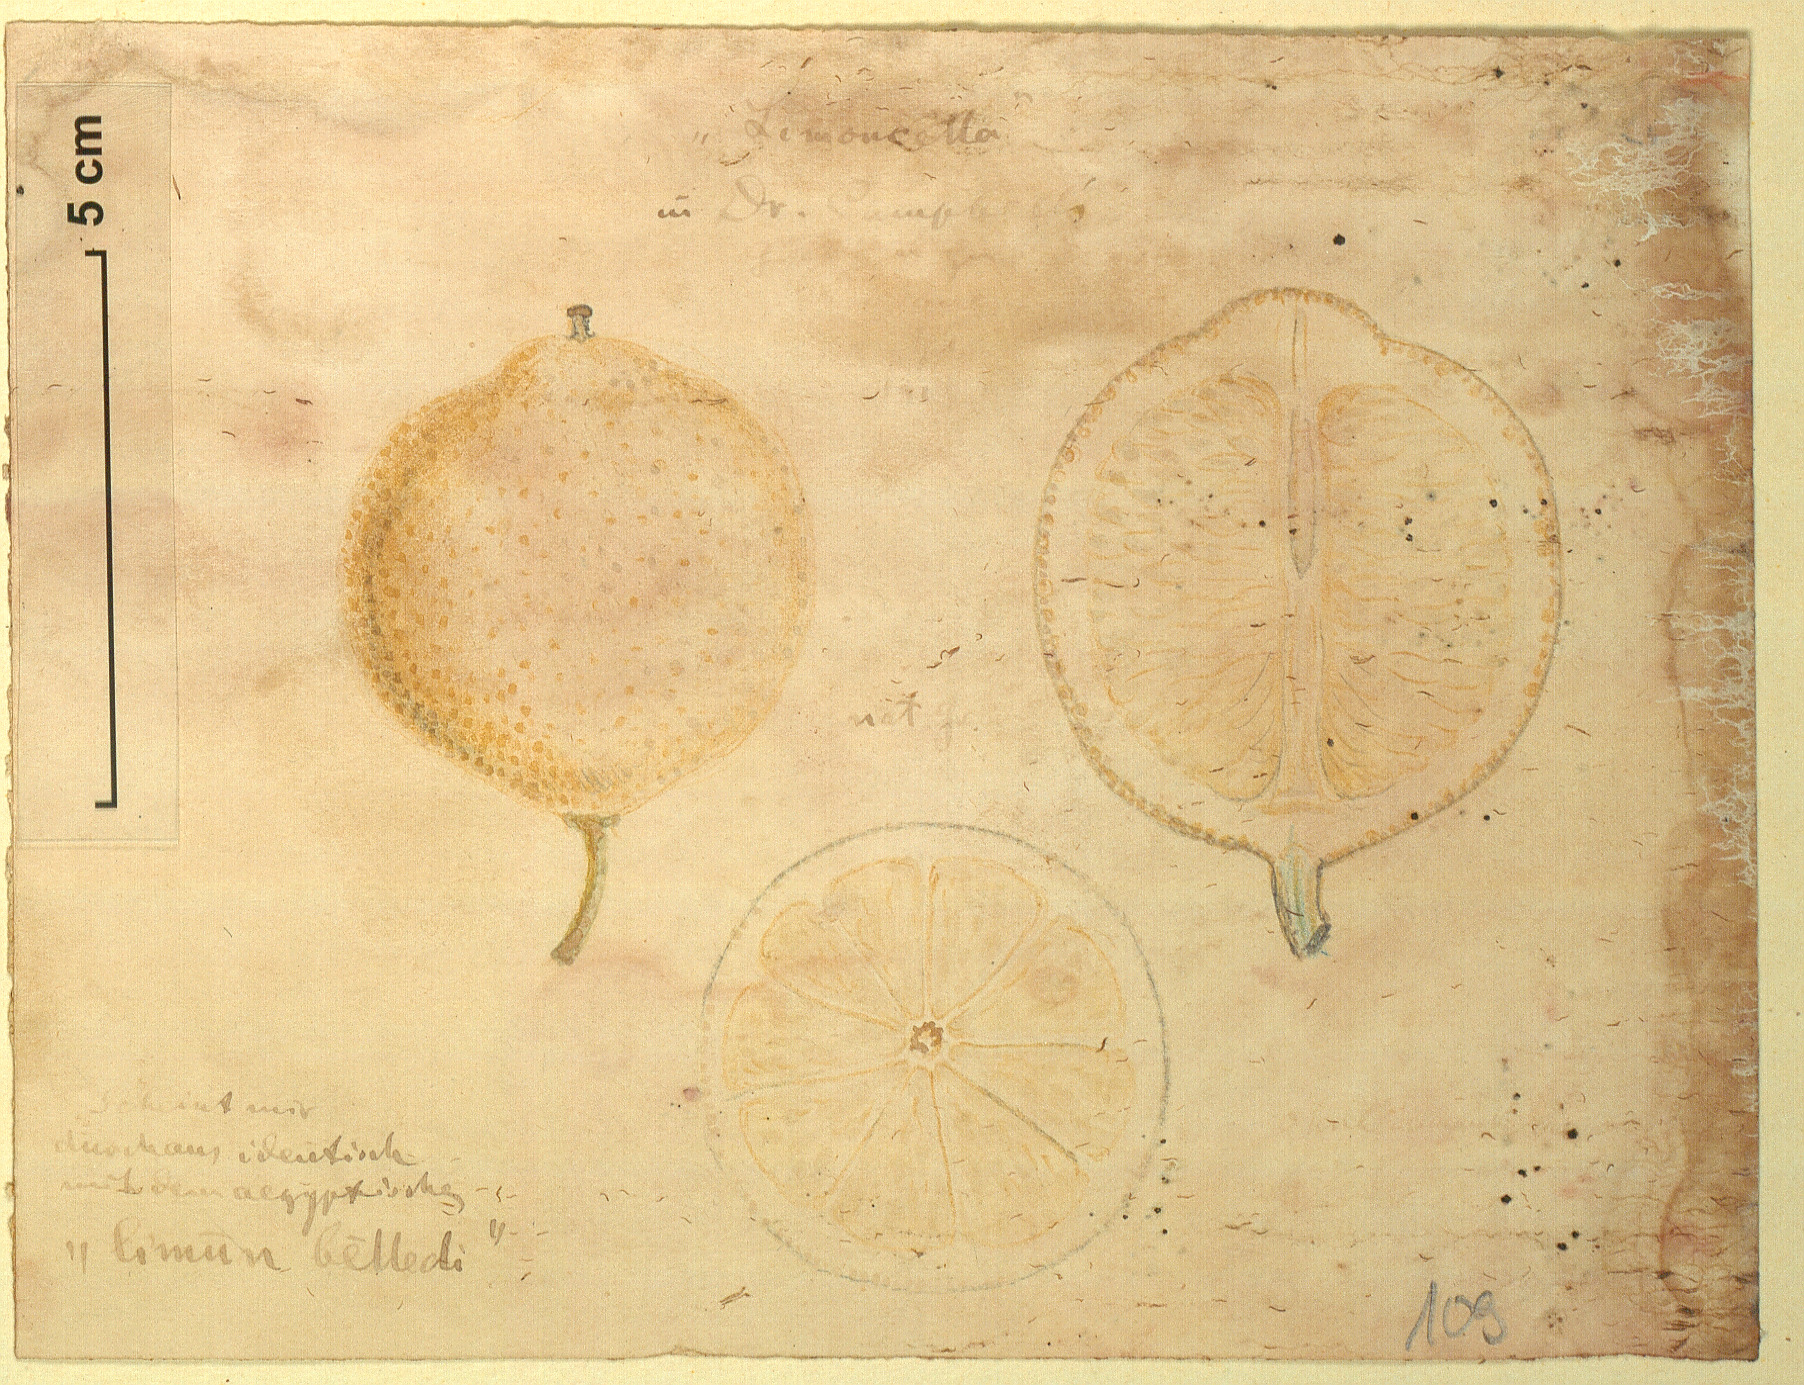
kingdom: Plantae
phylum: Tracheophyta
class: Magnoliopsida
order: Sapindales
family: Rutaceae
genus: Citrus
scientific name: Citrus limon
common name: Lemon
